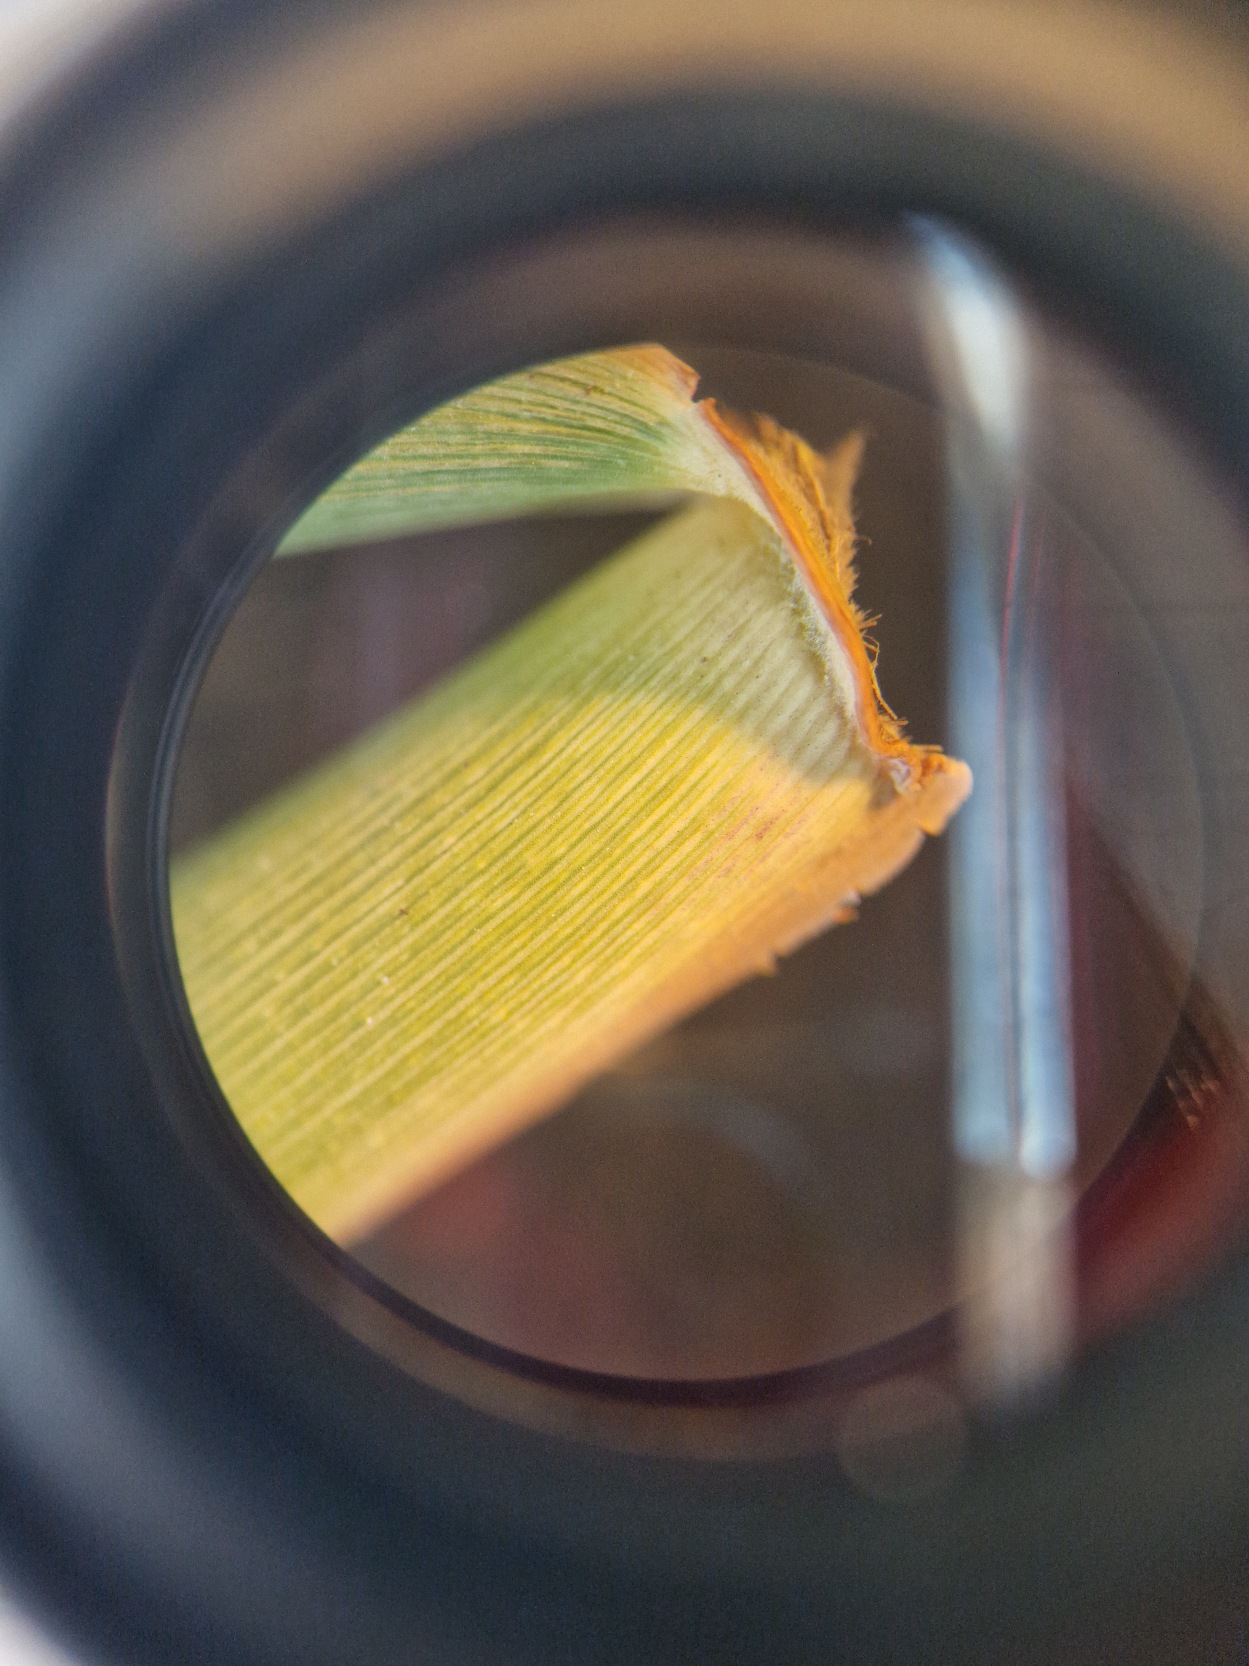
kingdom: Plantae
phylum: Tracheophyta
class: Liliopsida
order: Poales
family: Poaceae
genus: Phragmites
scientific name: Phragmites australis
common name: Tagrør
